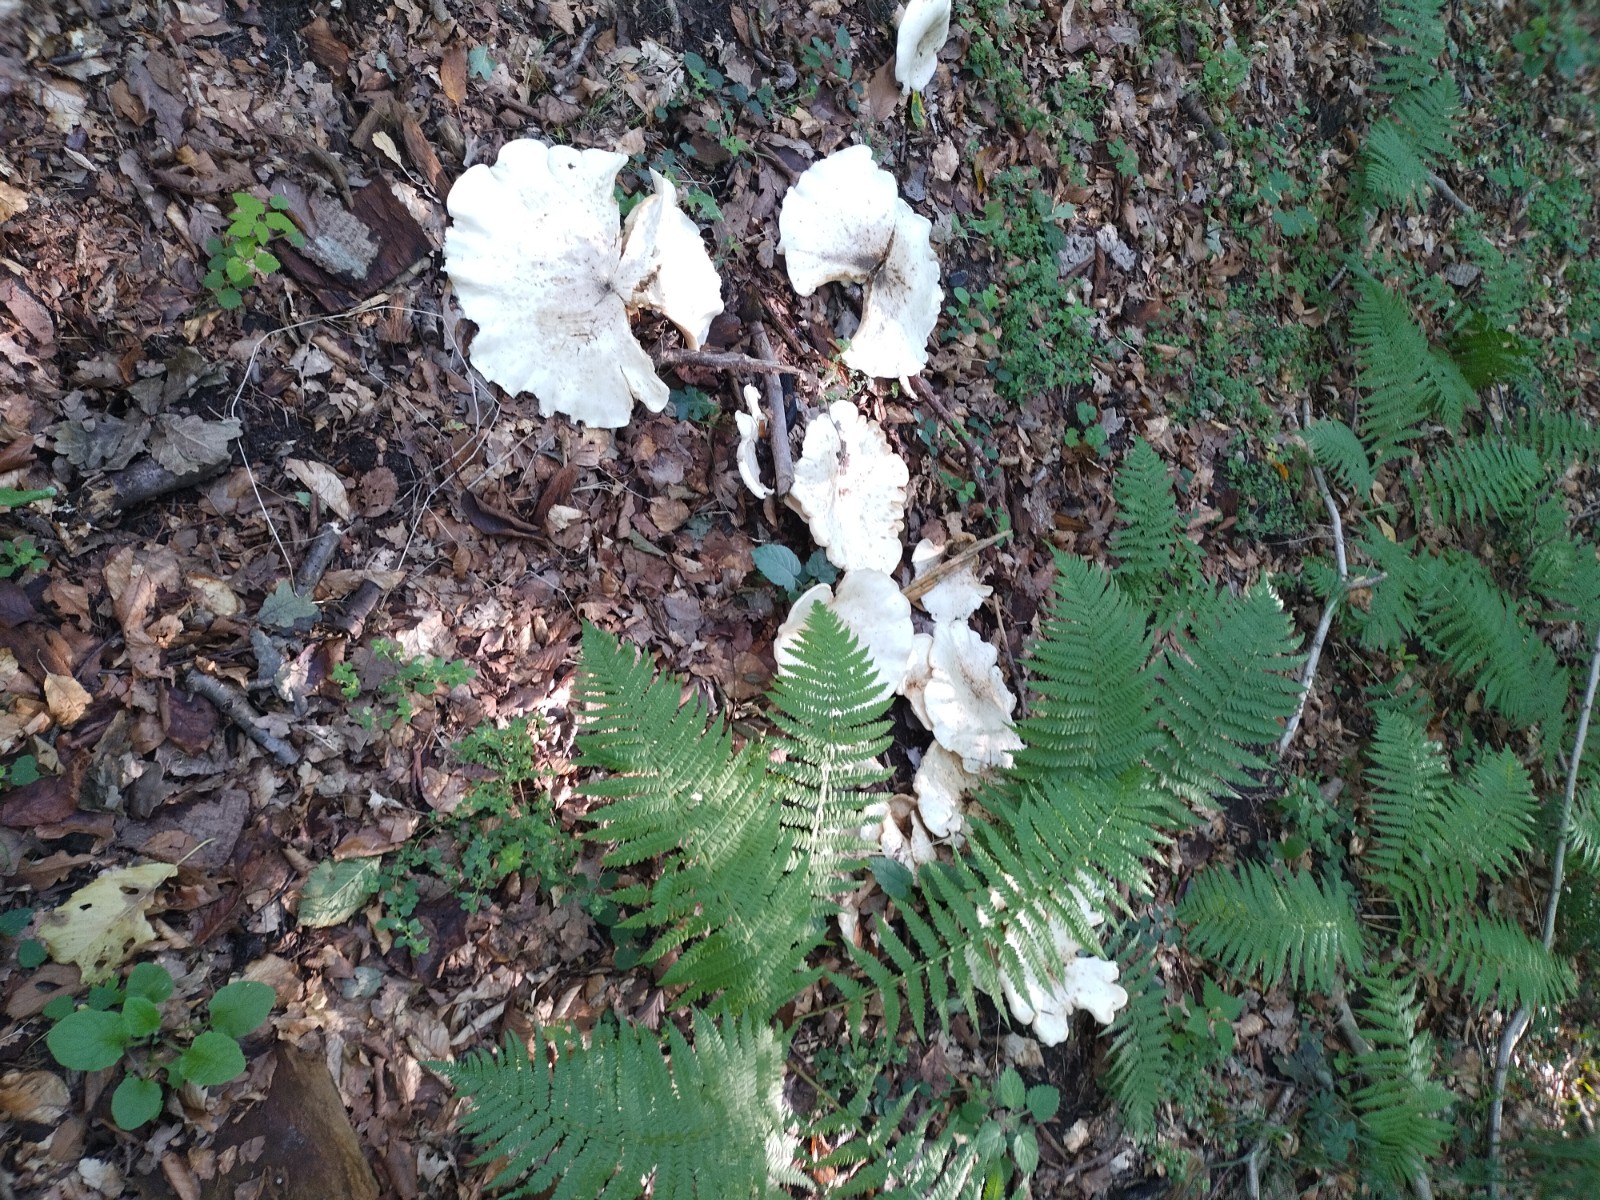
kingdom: Fungi
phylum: Basidiomycota
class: Agaricomycetes
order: Agaricales
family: Tricholomataceae
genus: Aspropaxillus
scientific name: Aspropaxillus giganteus
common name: kæmpe-tragtridderhat
